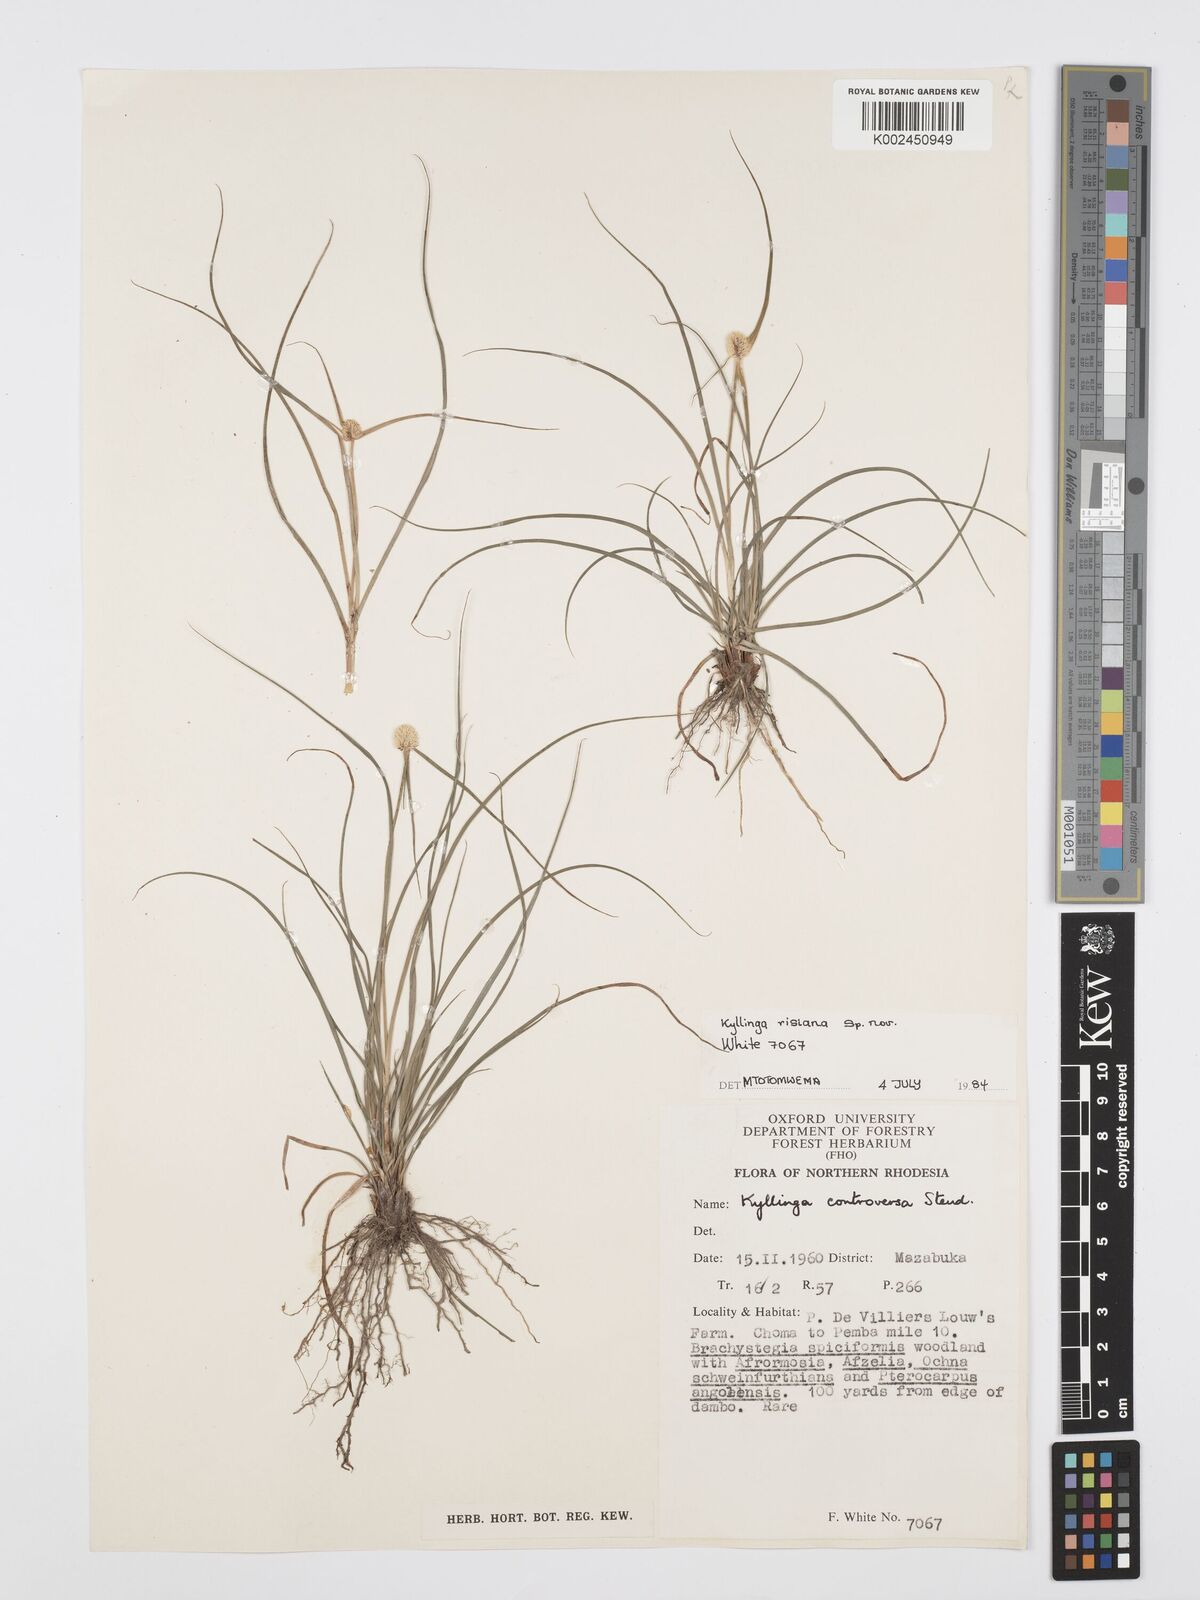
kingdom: Plantae
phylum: Tracheophyta
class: Liliopsida
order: Poales
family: Cyperaceae
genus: Cyperus
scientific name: Cyperus
